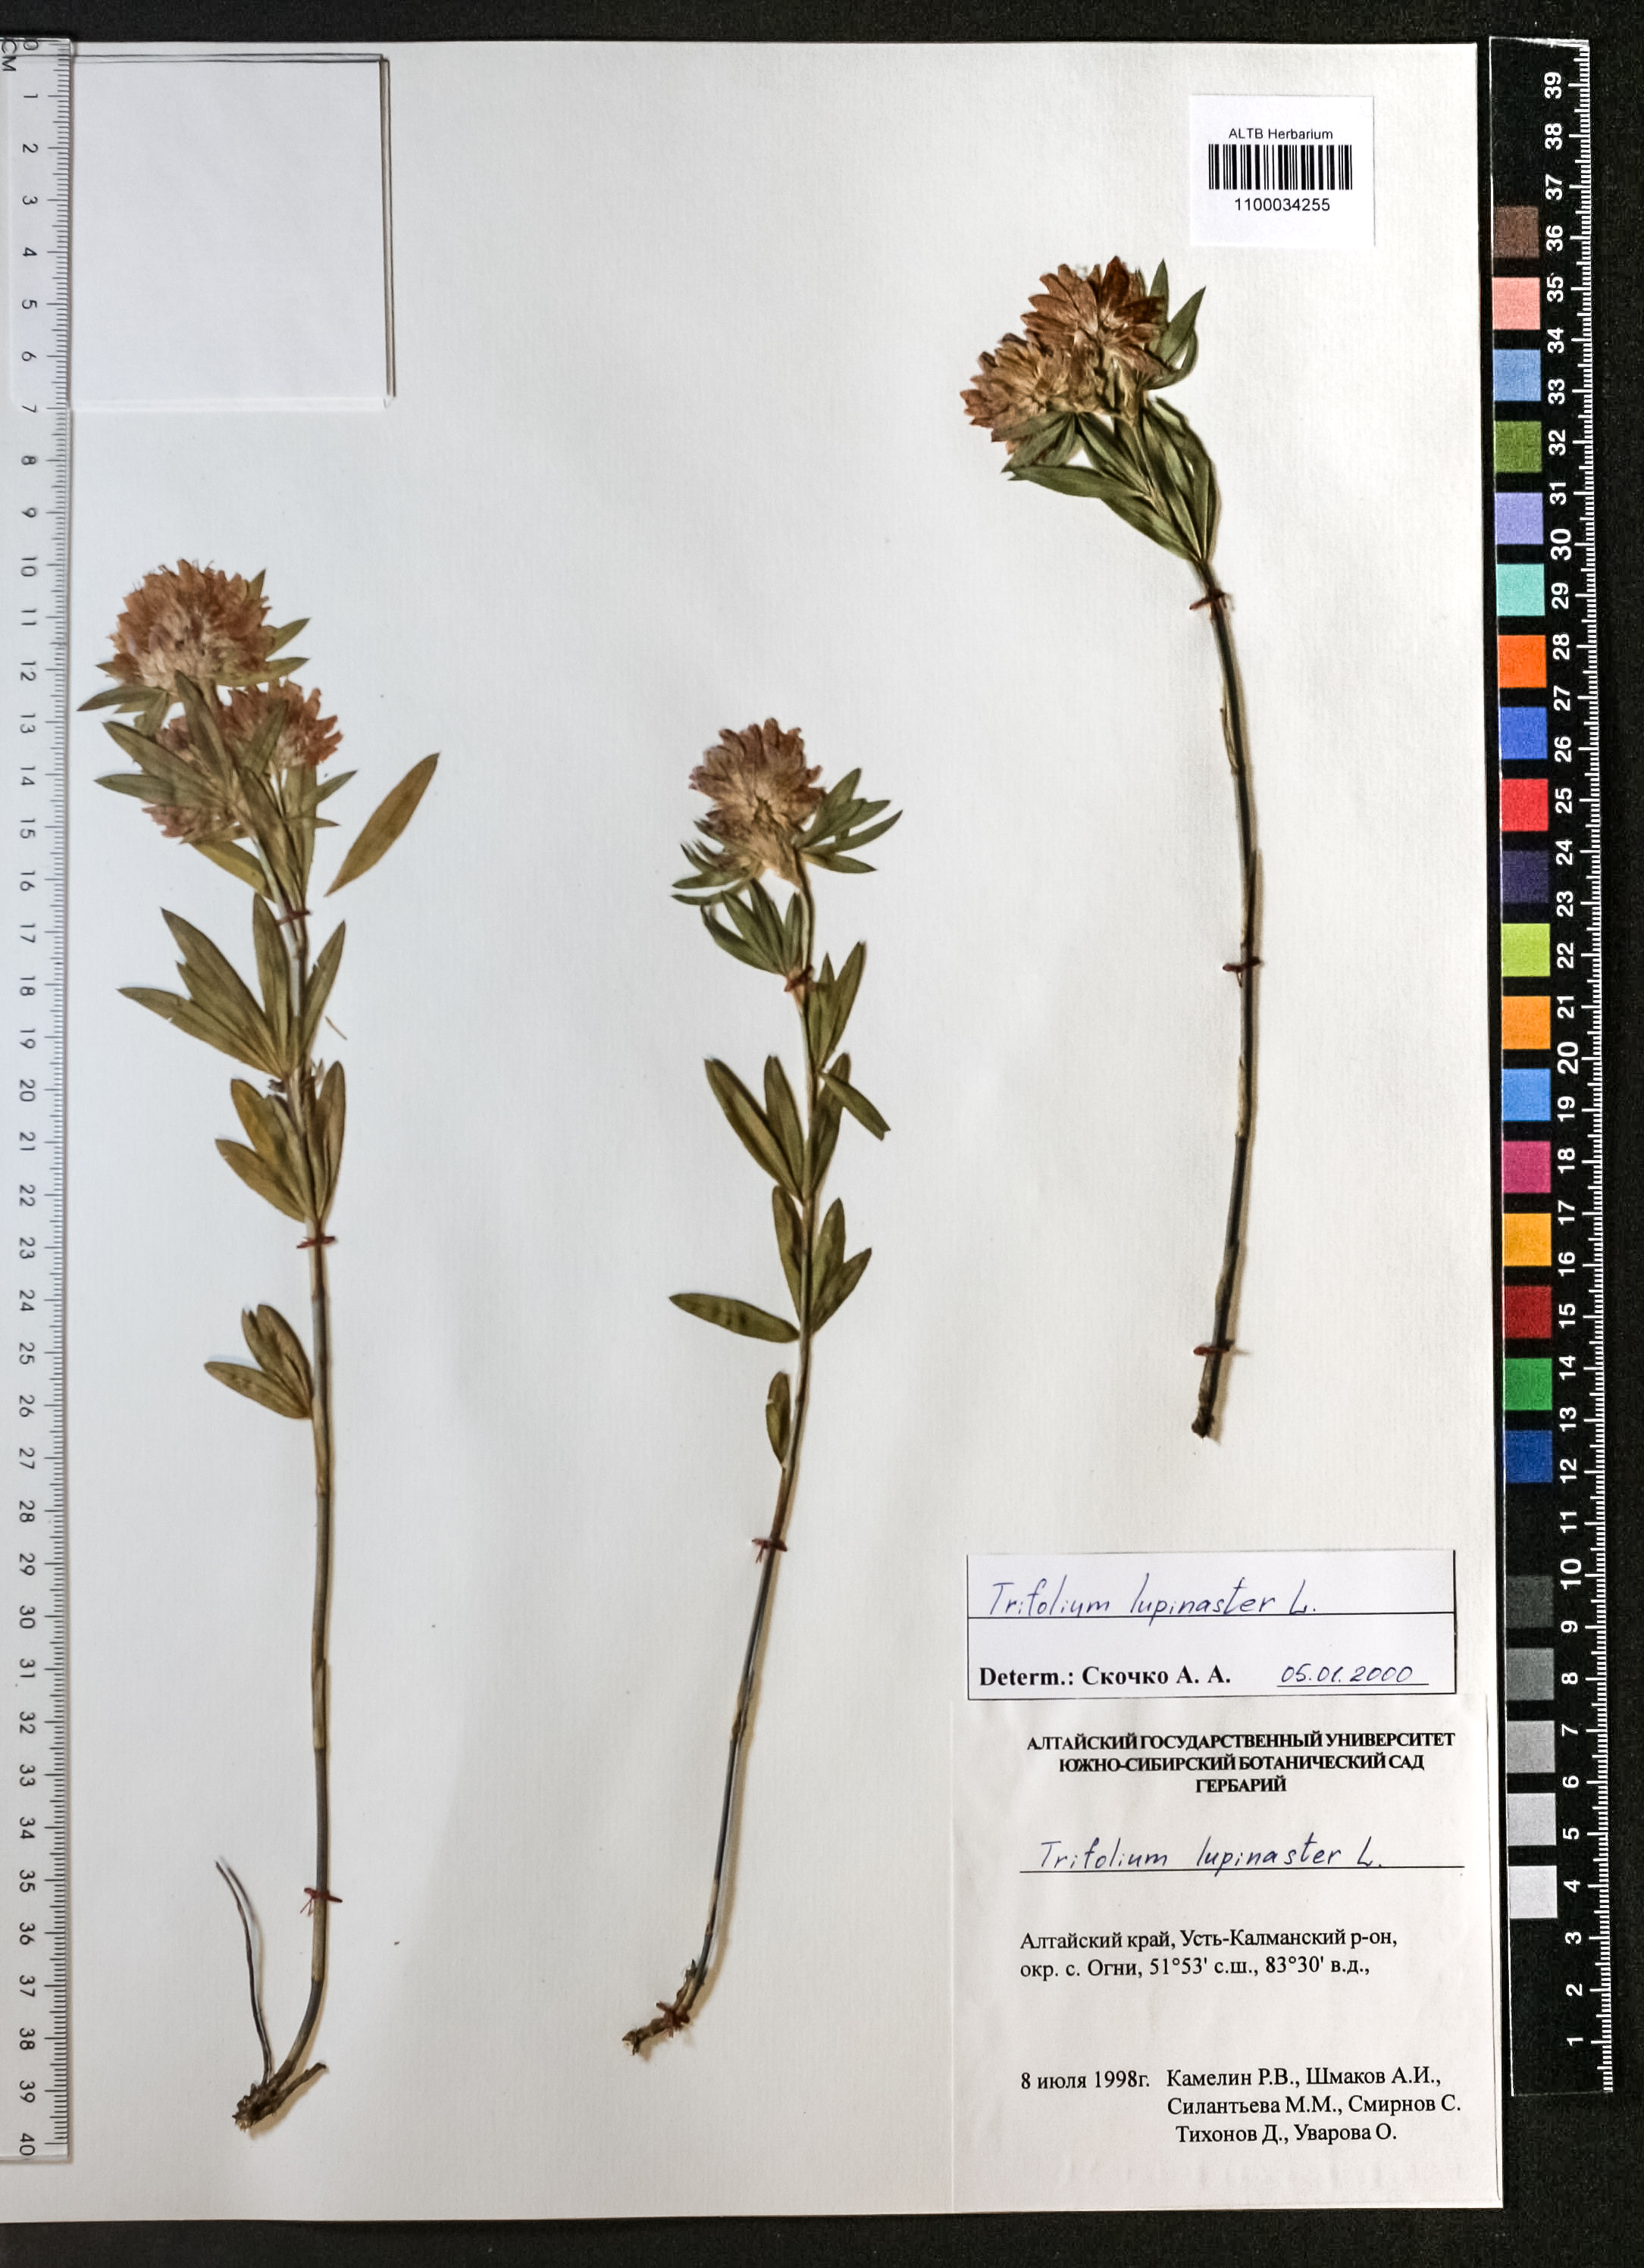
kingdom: Plantae
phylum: Tracheophyta
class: Magnoliopsida
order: Fabales
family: Fabaceae
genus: Trifolium
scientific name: Trifolium lupinaster
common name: Lupine clover
